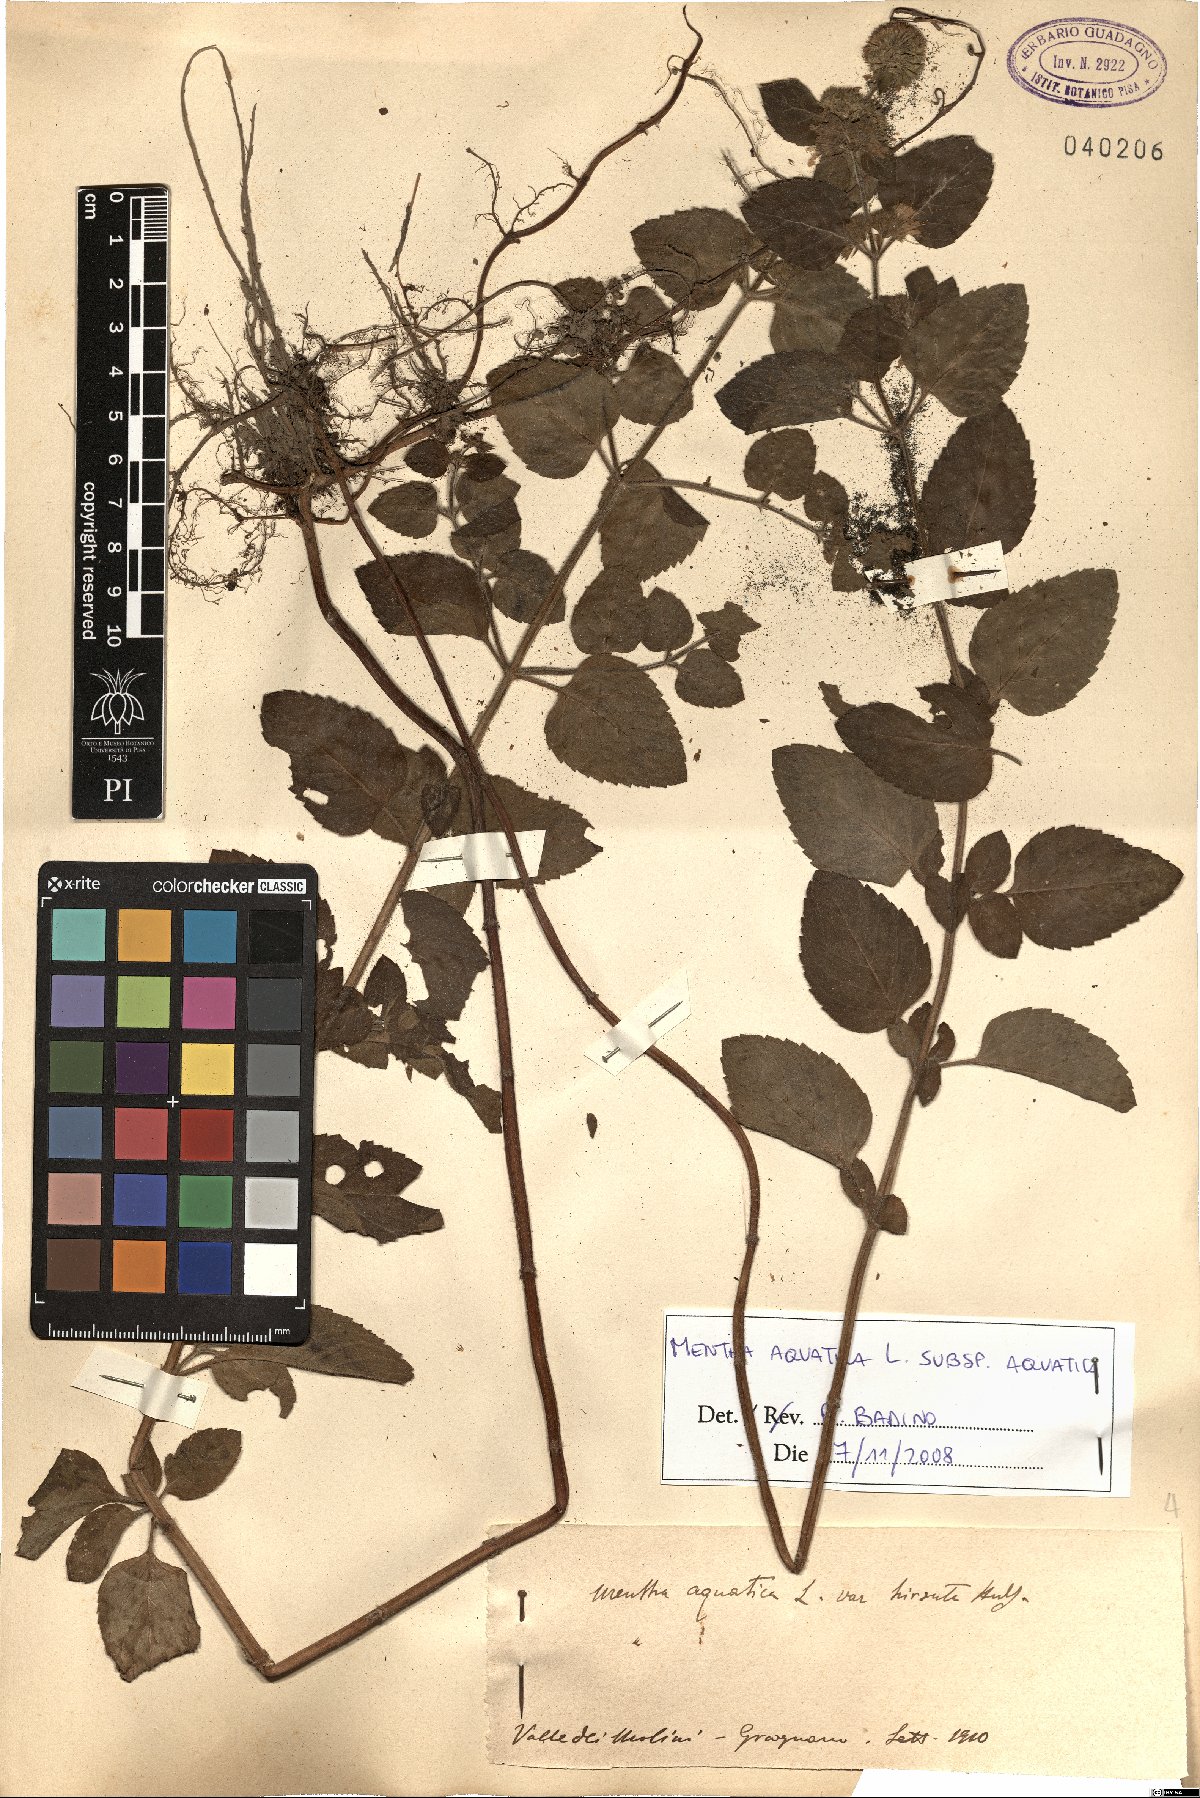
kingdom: Plantae
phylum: Tracheophyta
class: Magnoliopsida
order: Lamiales
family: Lamiaceae
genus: Mentha
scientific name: Mentha aquatica
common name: Water mint
